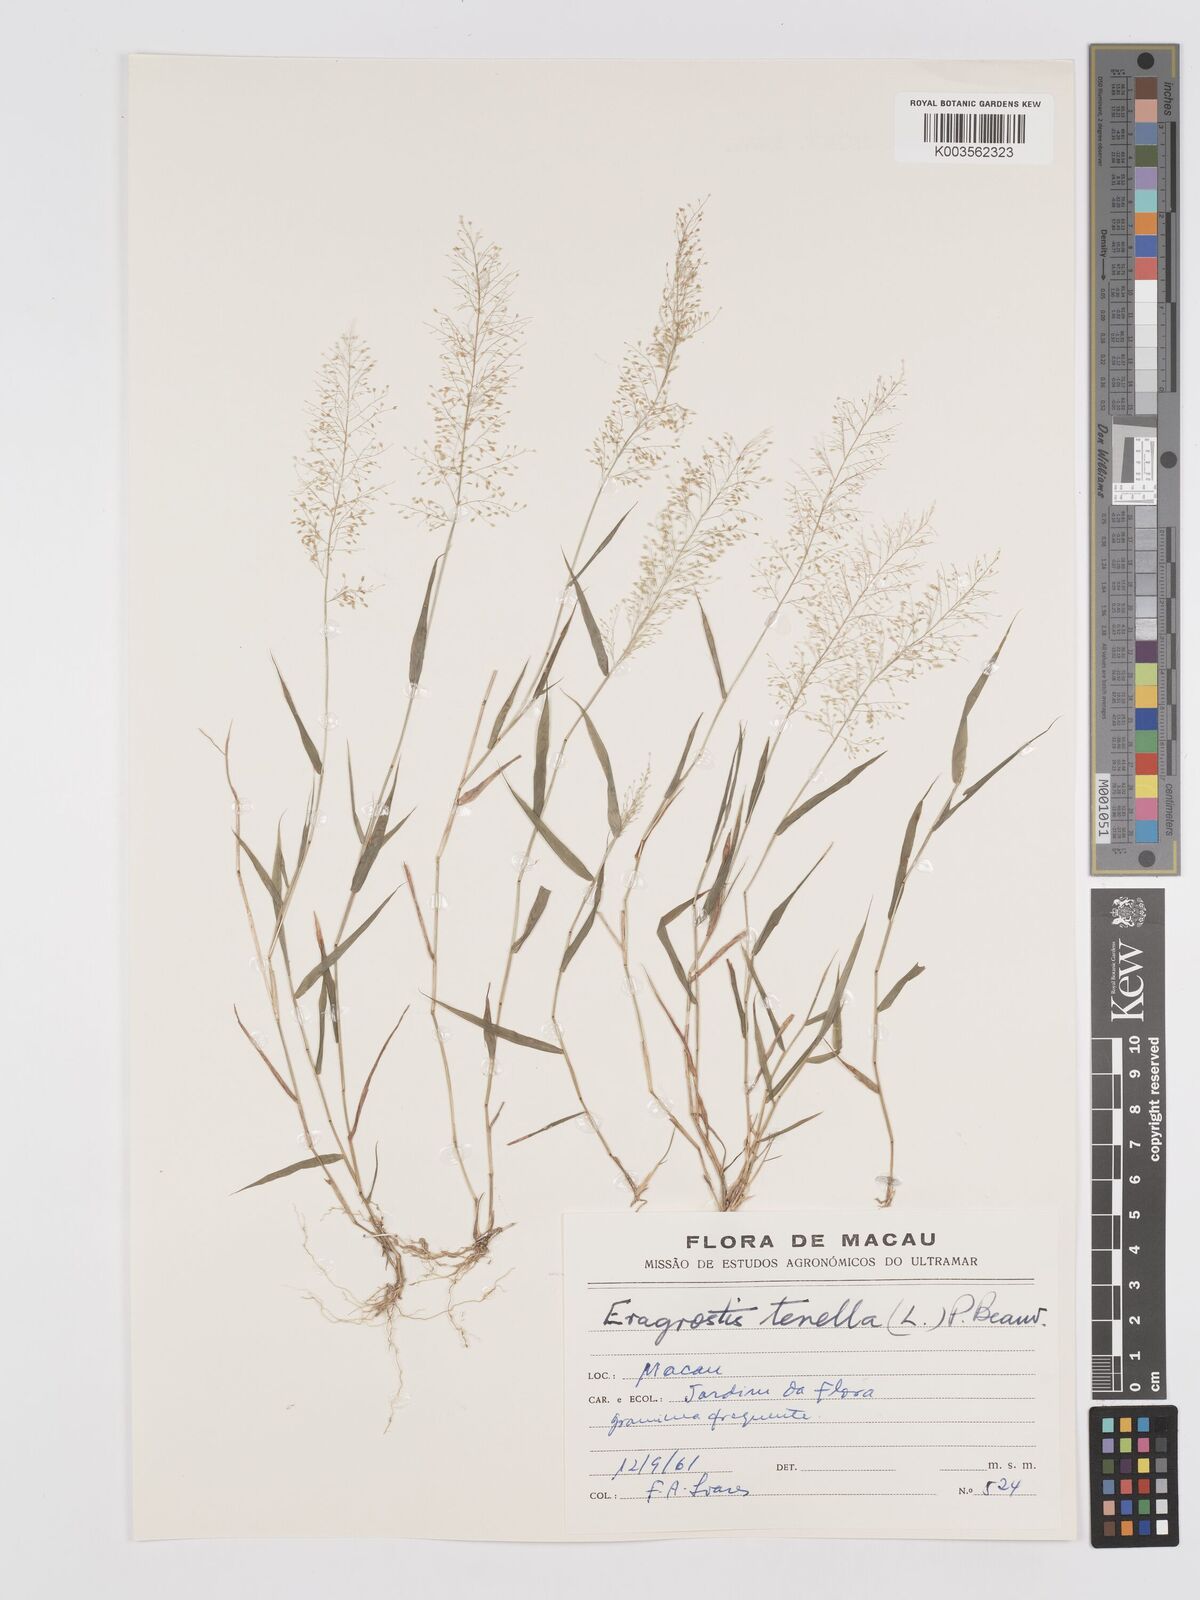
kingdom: Plantae
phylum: Tracheophyta
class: Liliopsida
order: Poales
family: Poaceae
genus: Eragrostis
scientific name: Eragrostis tenella
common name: Japanese lovegrass
